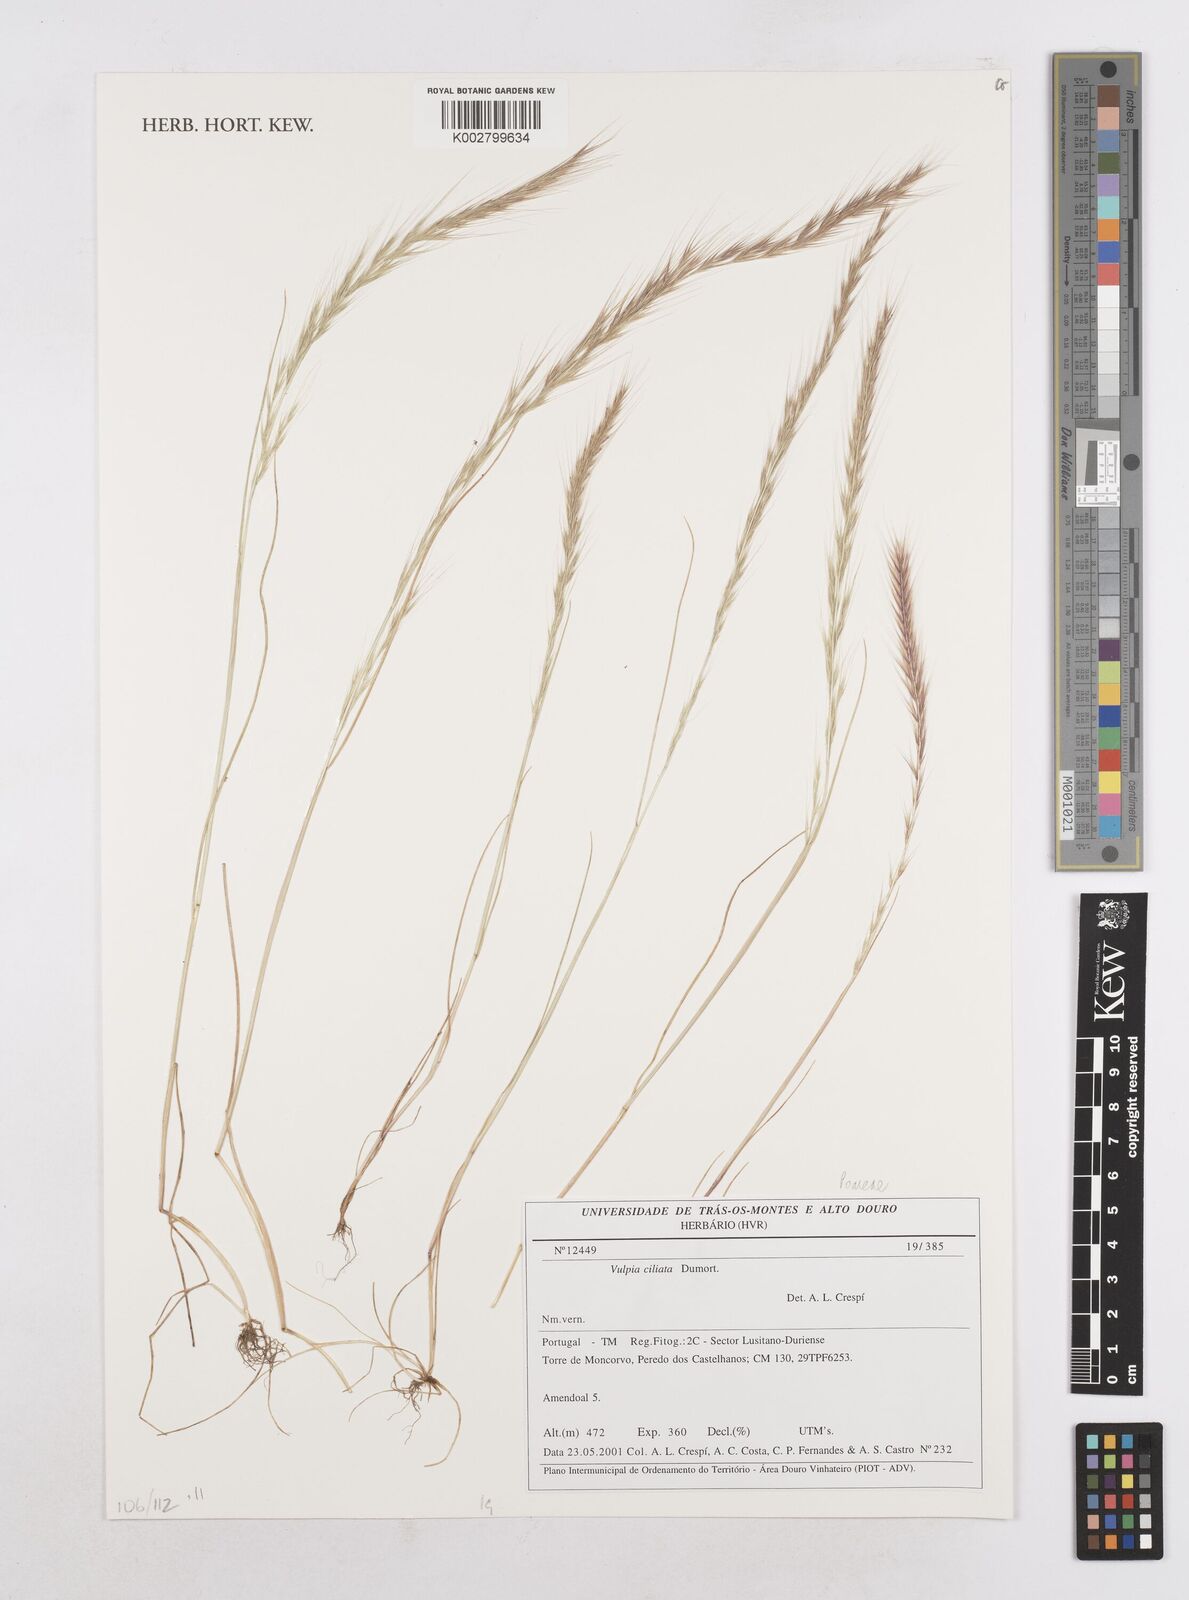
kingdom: Plantae
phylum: Tracheophyta
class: Liliopsida
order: Poales
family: Poaceae
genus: Festuca
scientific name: Festuca ambigua
